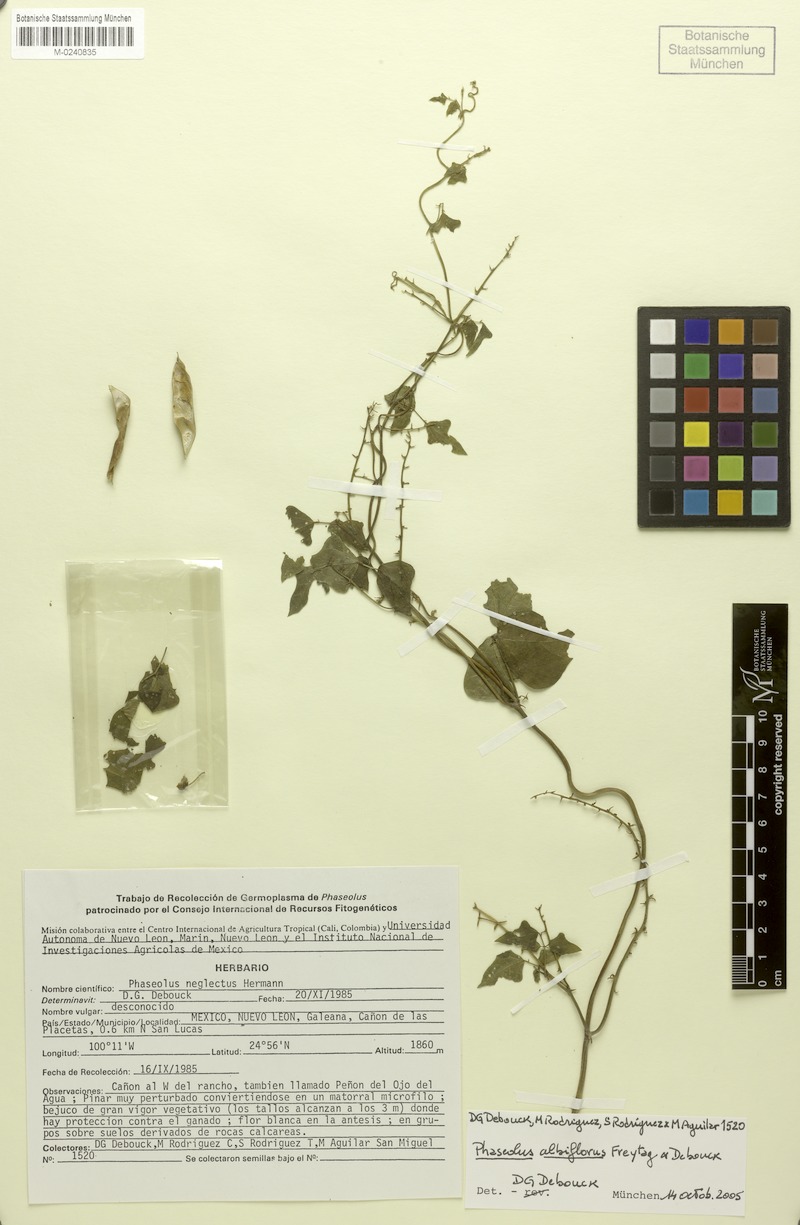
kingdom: Plantae
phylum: Tracheophyta
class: Magnoliopsida
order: Fabales
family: Fabaceae
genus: Phaseolus
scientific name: Phaseolus albiflorus
